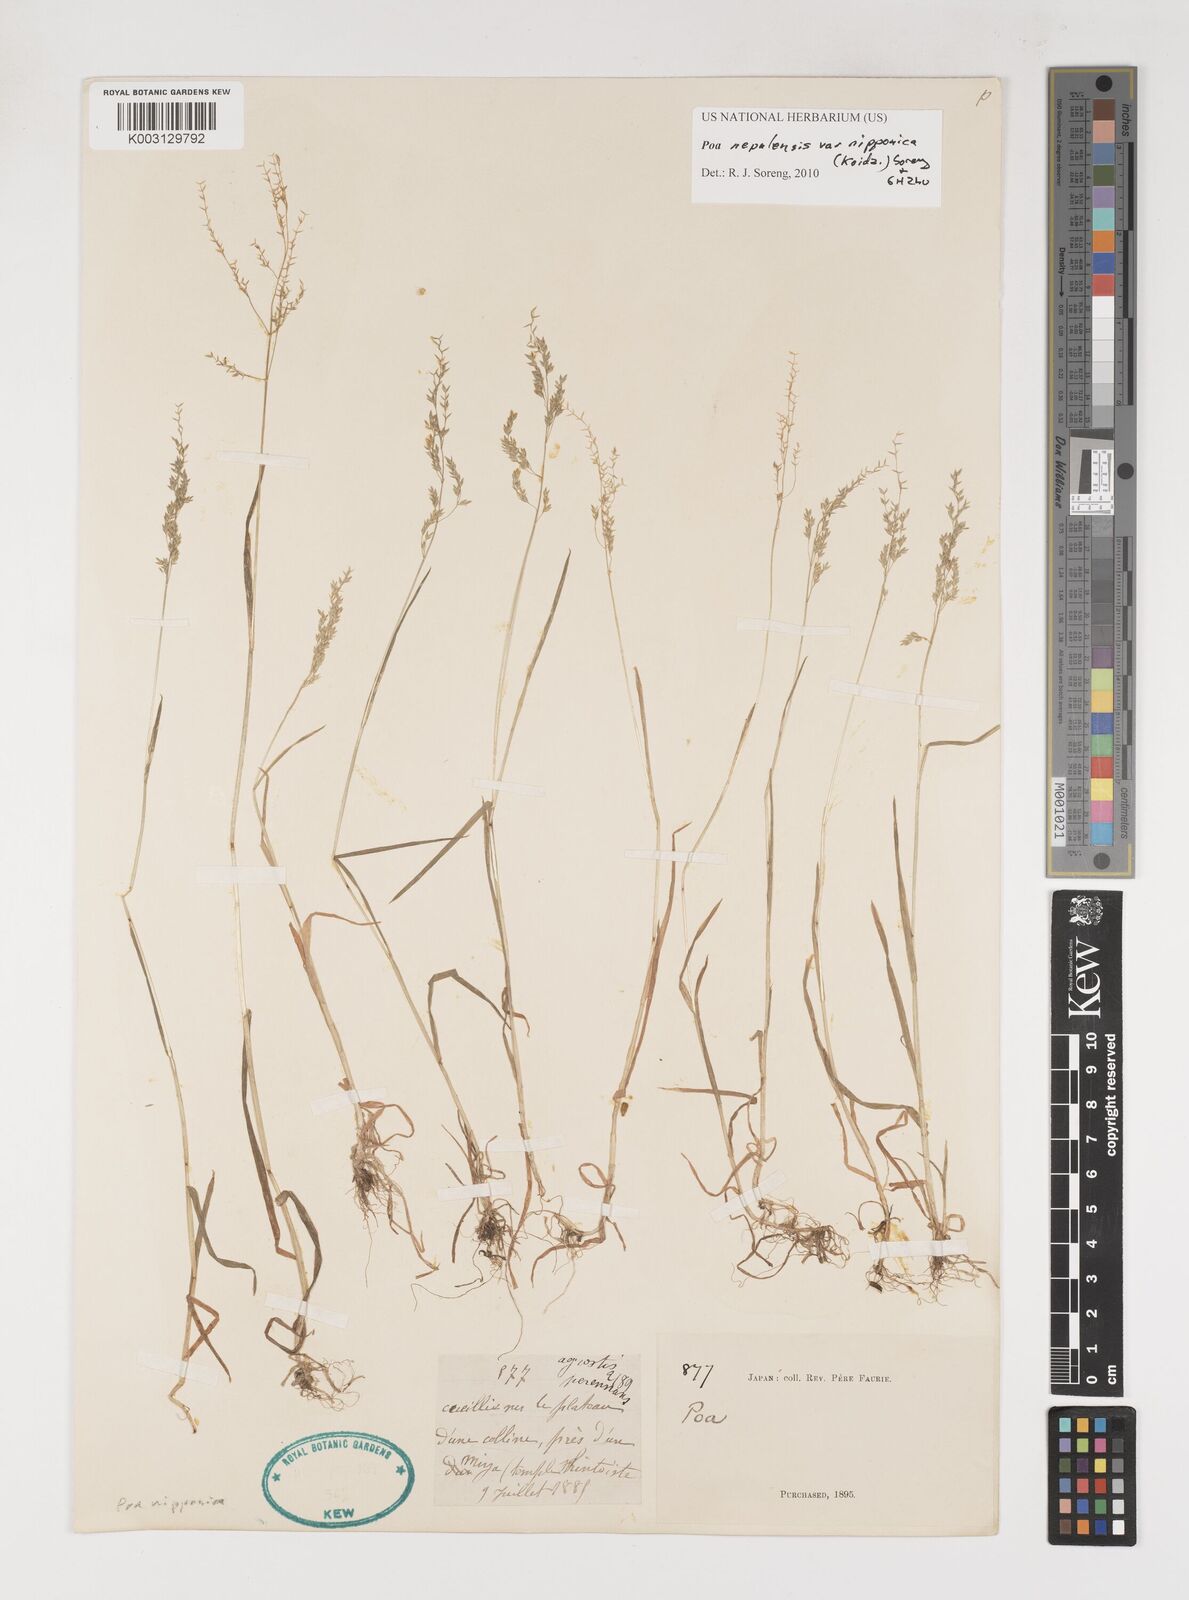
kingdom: Plantae
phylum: Tracheophyta
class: Liliopsida
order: Poales
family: Poaceae
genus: Poa
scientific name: Poa nepalensis
